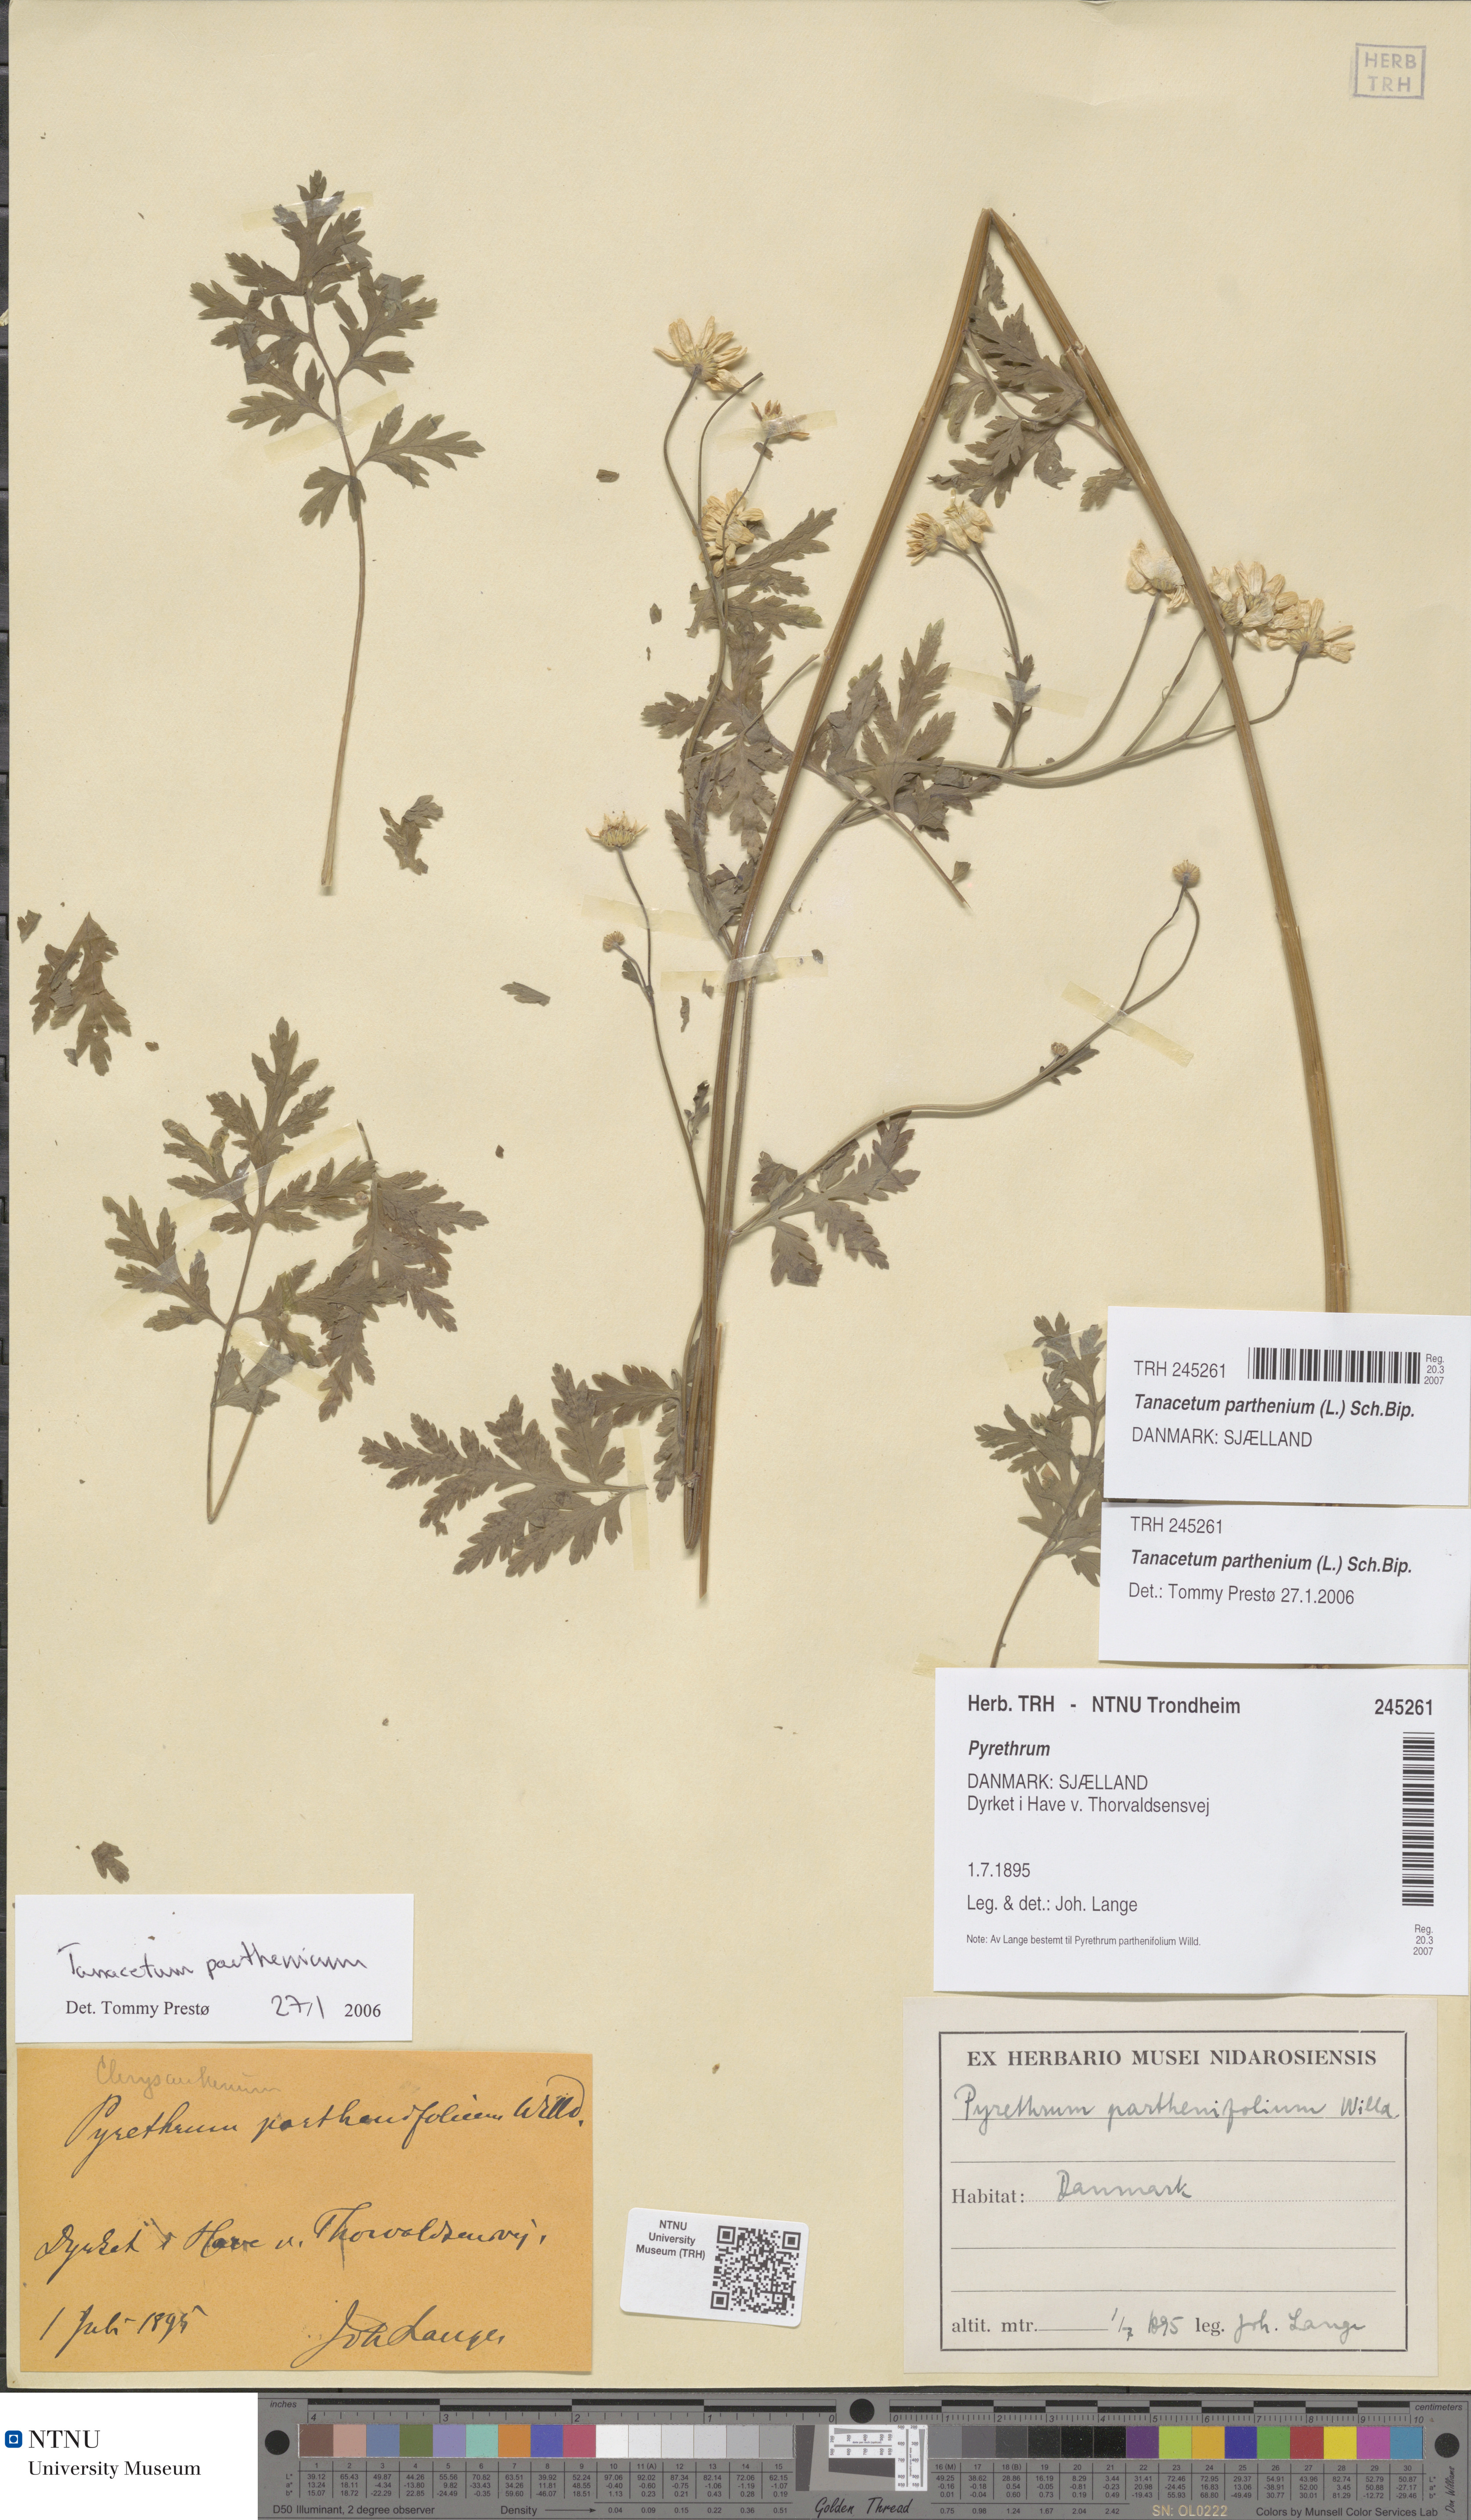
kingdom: Plantae
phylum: Tracheophyta
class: Magnoliopsida
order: Asterales
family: Asteraceae
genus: Tanacetum
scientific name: Tanacetum parthenium
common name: Feverfew
